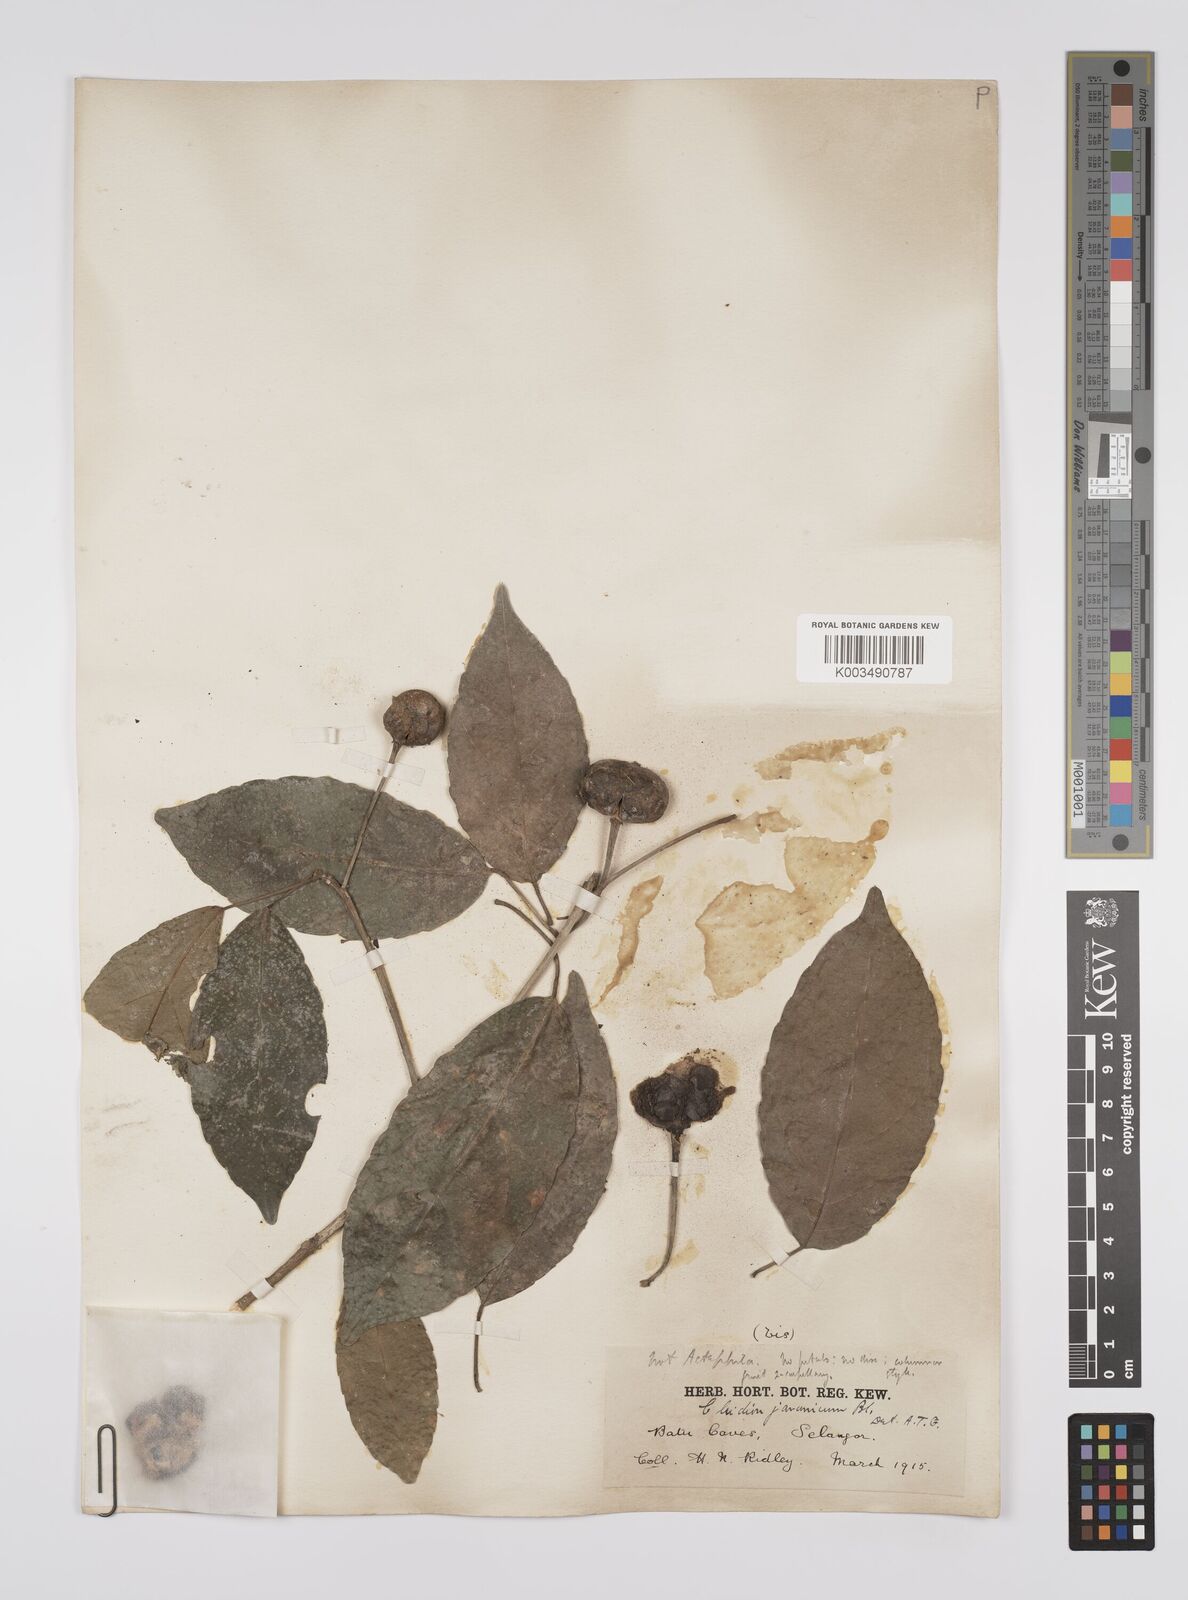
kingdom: Plantae
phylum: Tracheophyta
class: Magnoliopsida
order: Malpighiales
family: Euphorbiaceae
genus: Cleidion
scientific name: Cleidion javanicum
